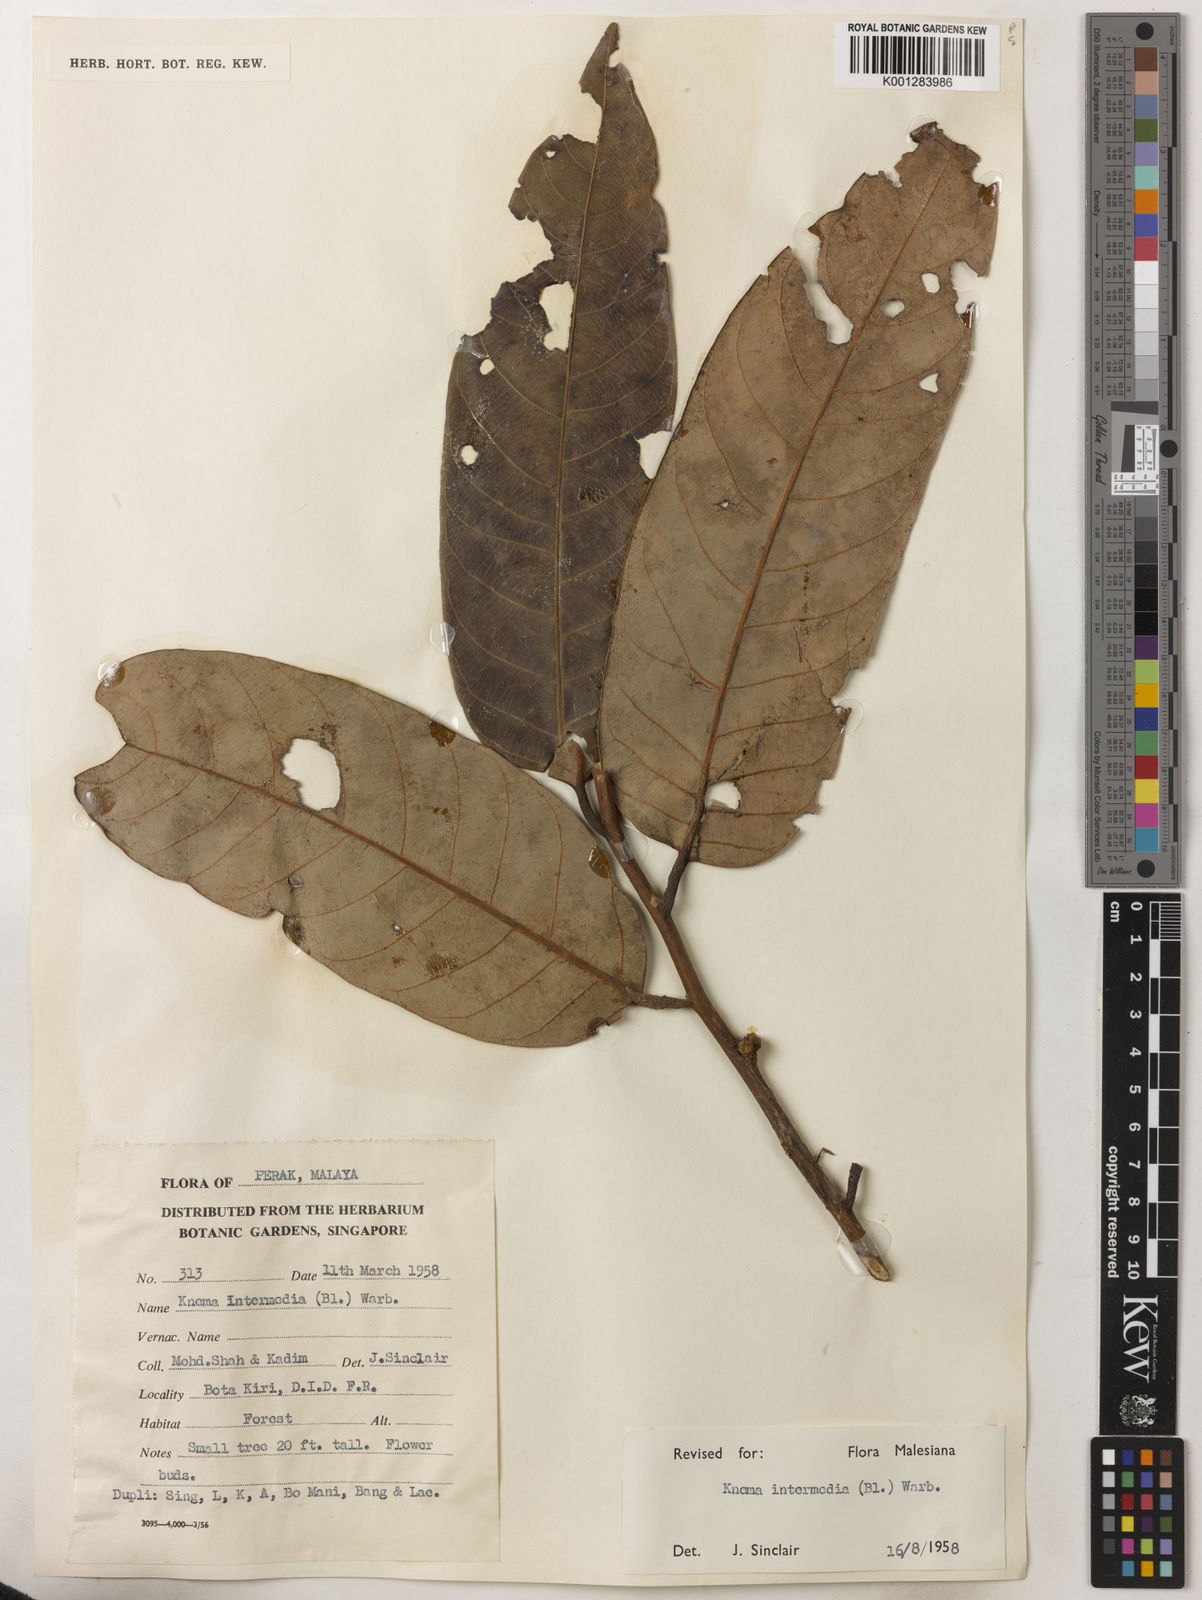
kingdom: Plantae
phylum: Tracheophyta
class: Magnoliopsida
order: Magnoliales
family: Myristicaceae
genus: Knema
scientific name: Knema intermedia
